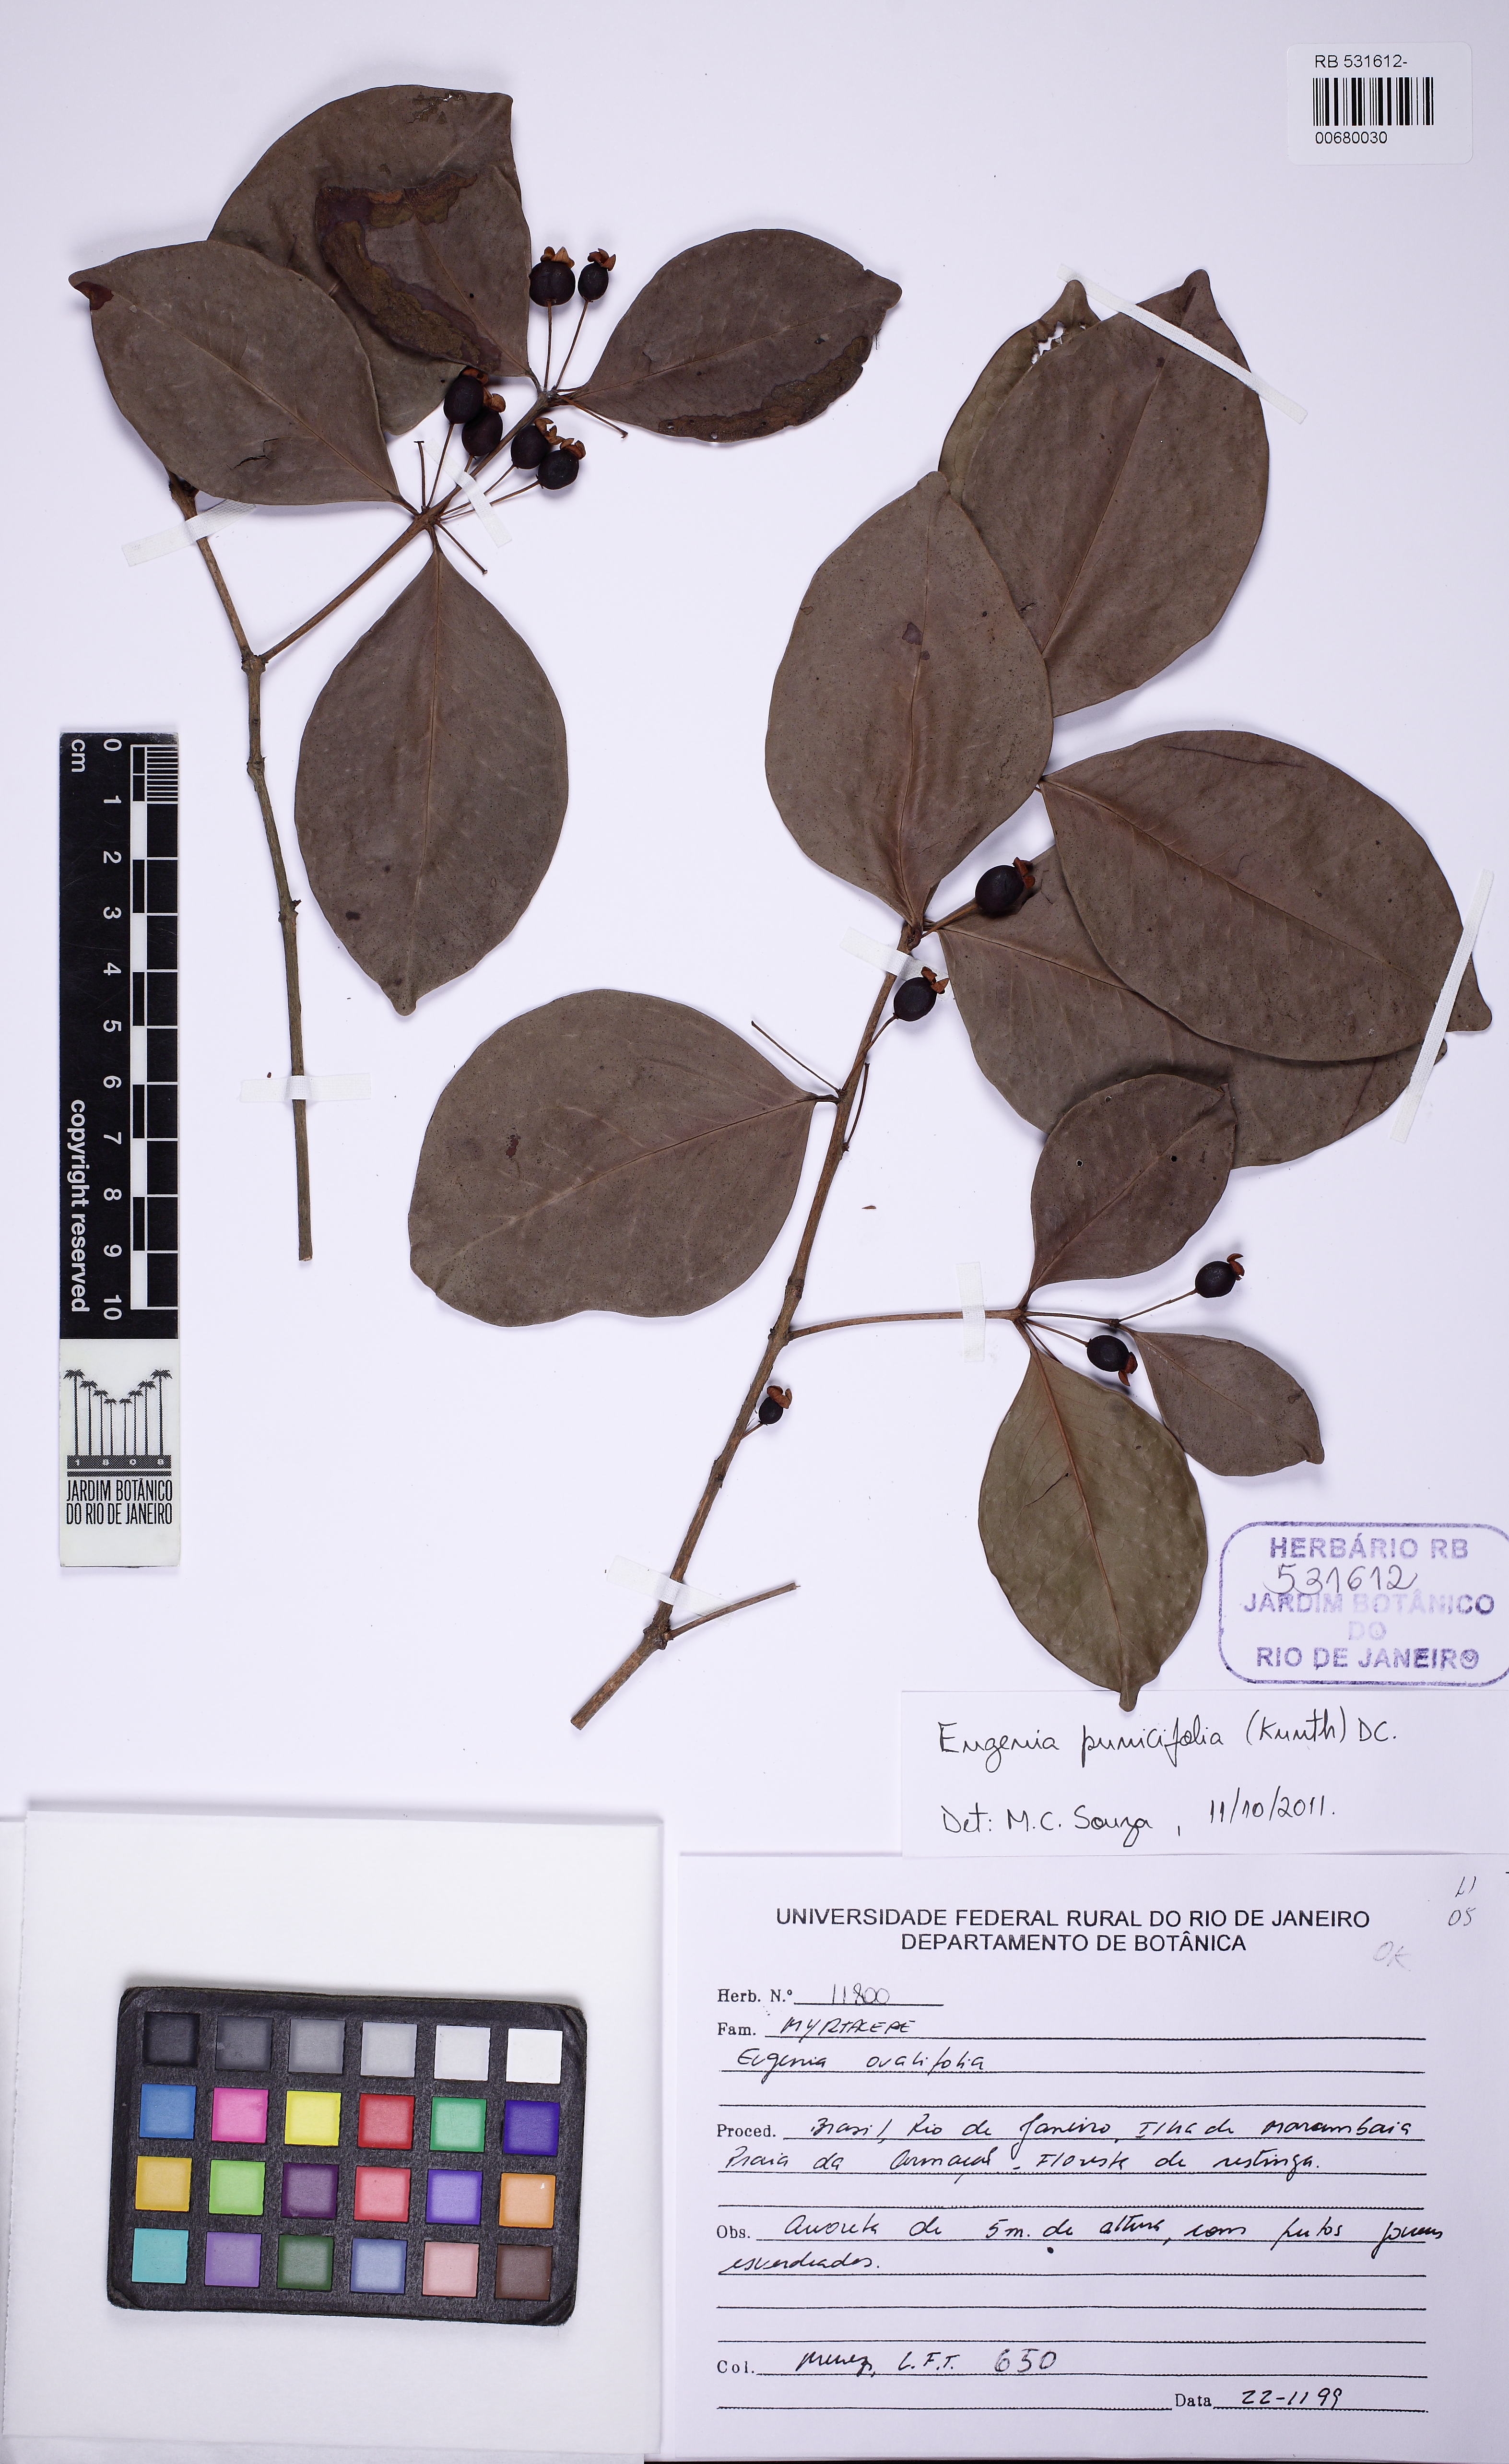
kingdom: Plantae
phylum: Tracheophyta
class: Magnoliopsida
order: Myrtales
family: Myrtaceae
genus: Eugenia
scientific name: Eugenia punicifolia
